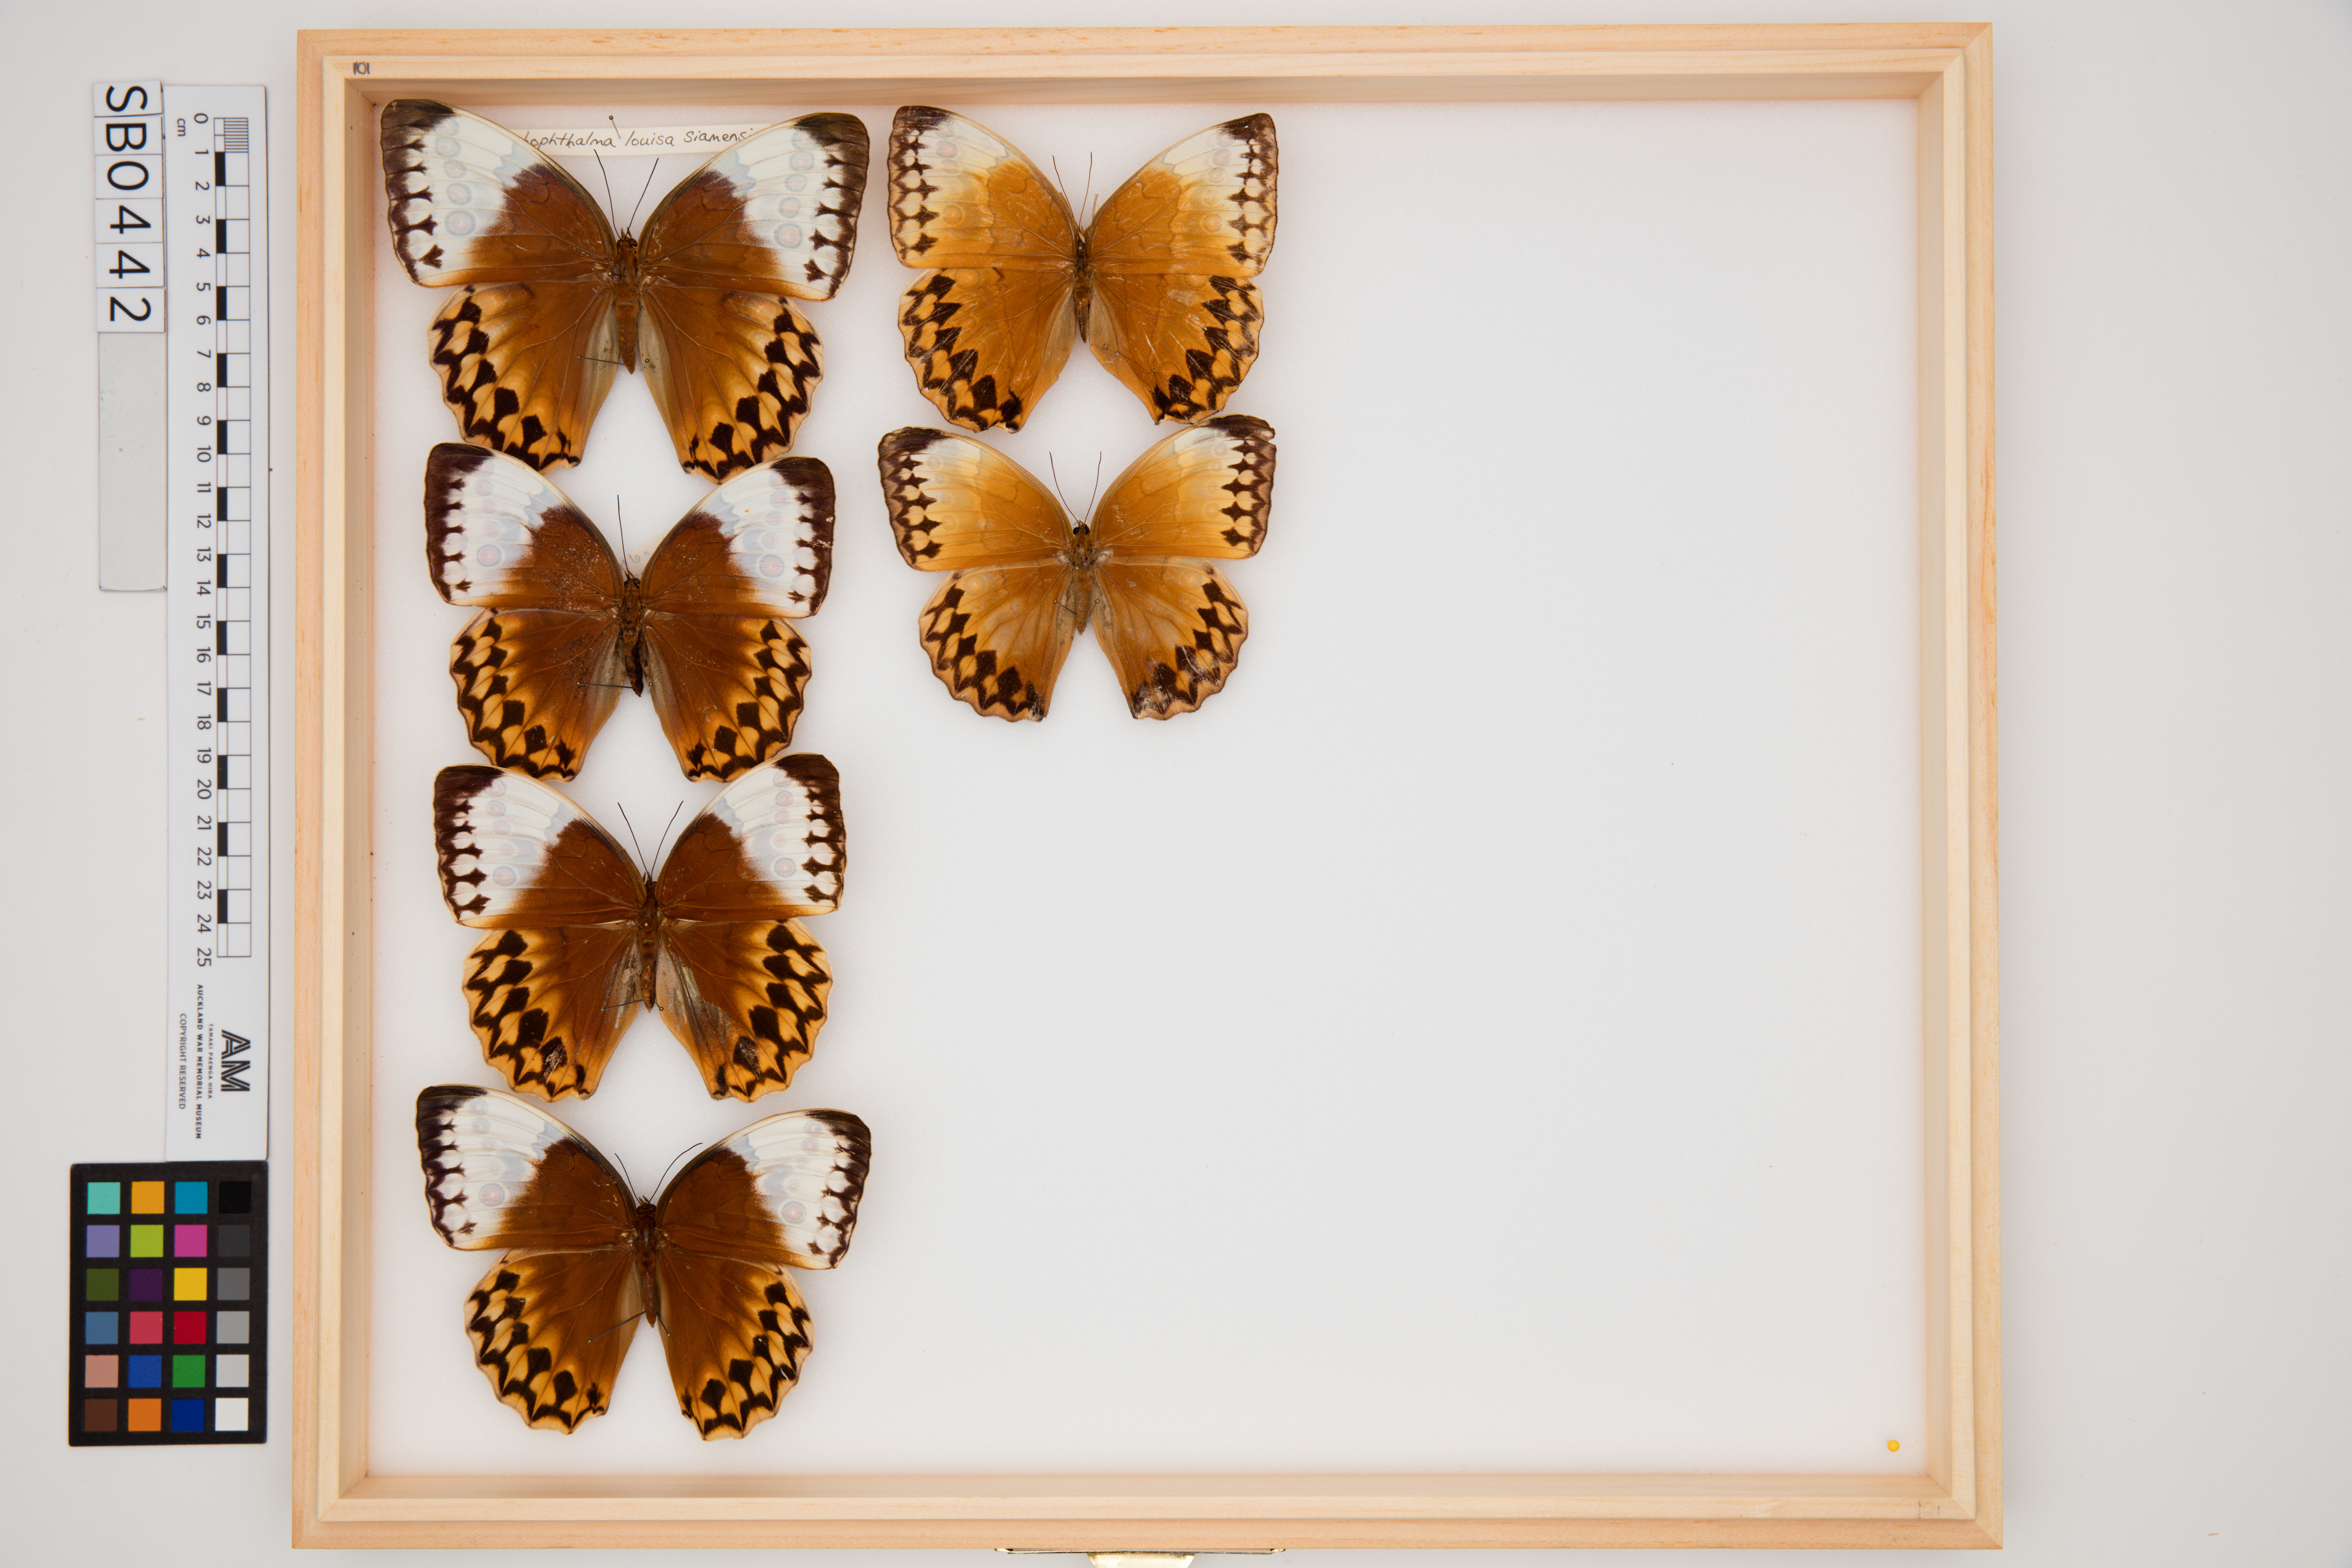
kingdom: Animalia
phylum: Arthropoda
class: Insecta
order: Lepidoptera
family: Nymphalidae
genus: Stichophthalma
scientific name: Stichophthalma louisa
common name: Oriental jungle queen
